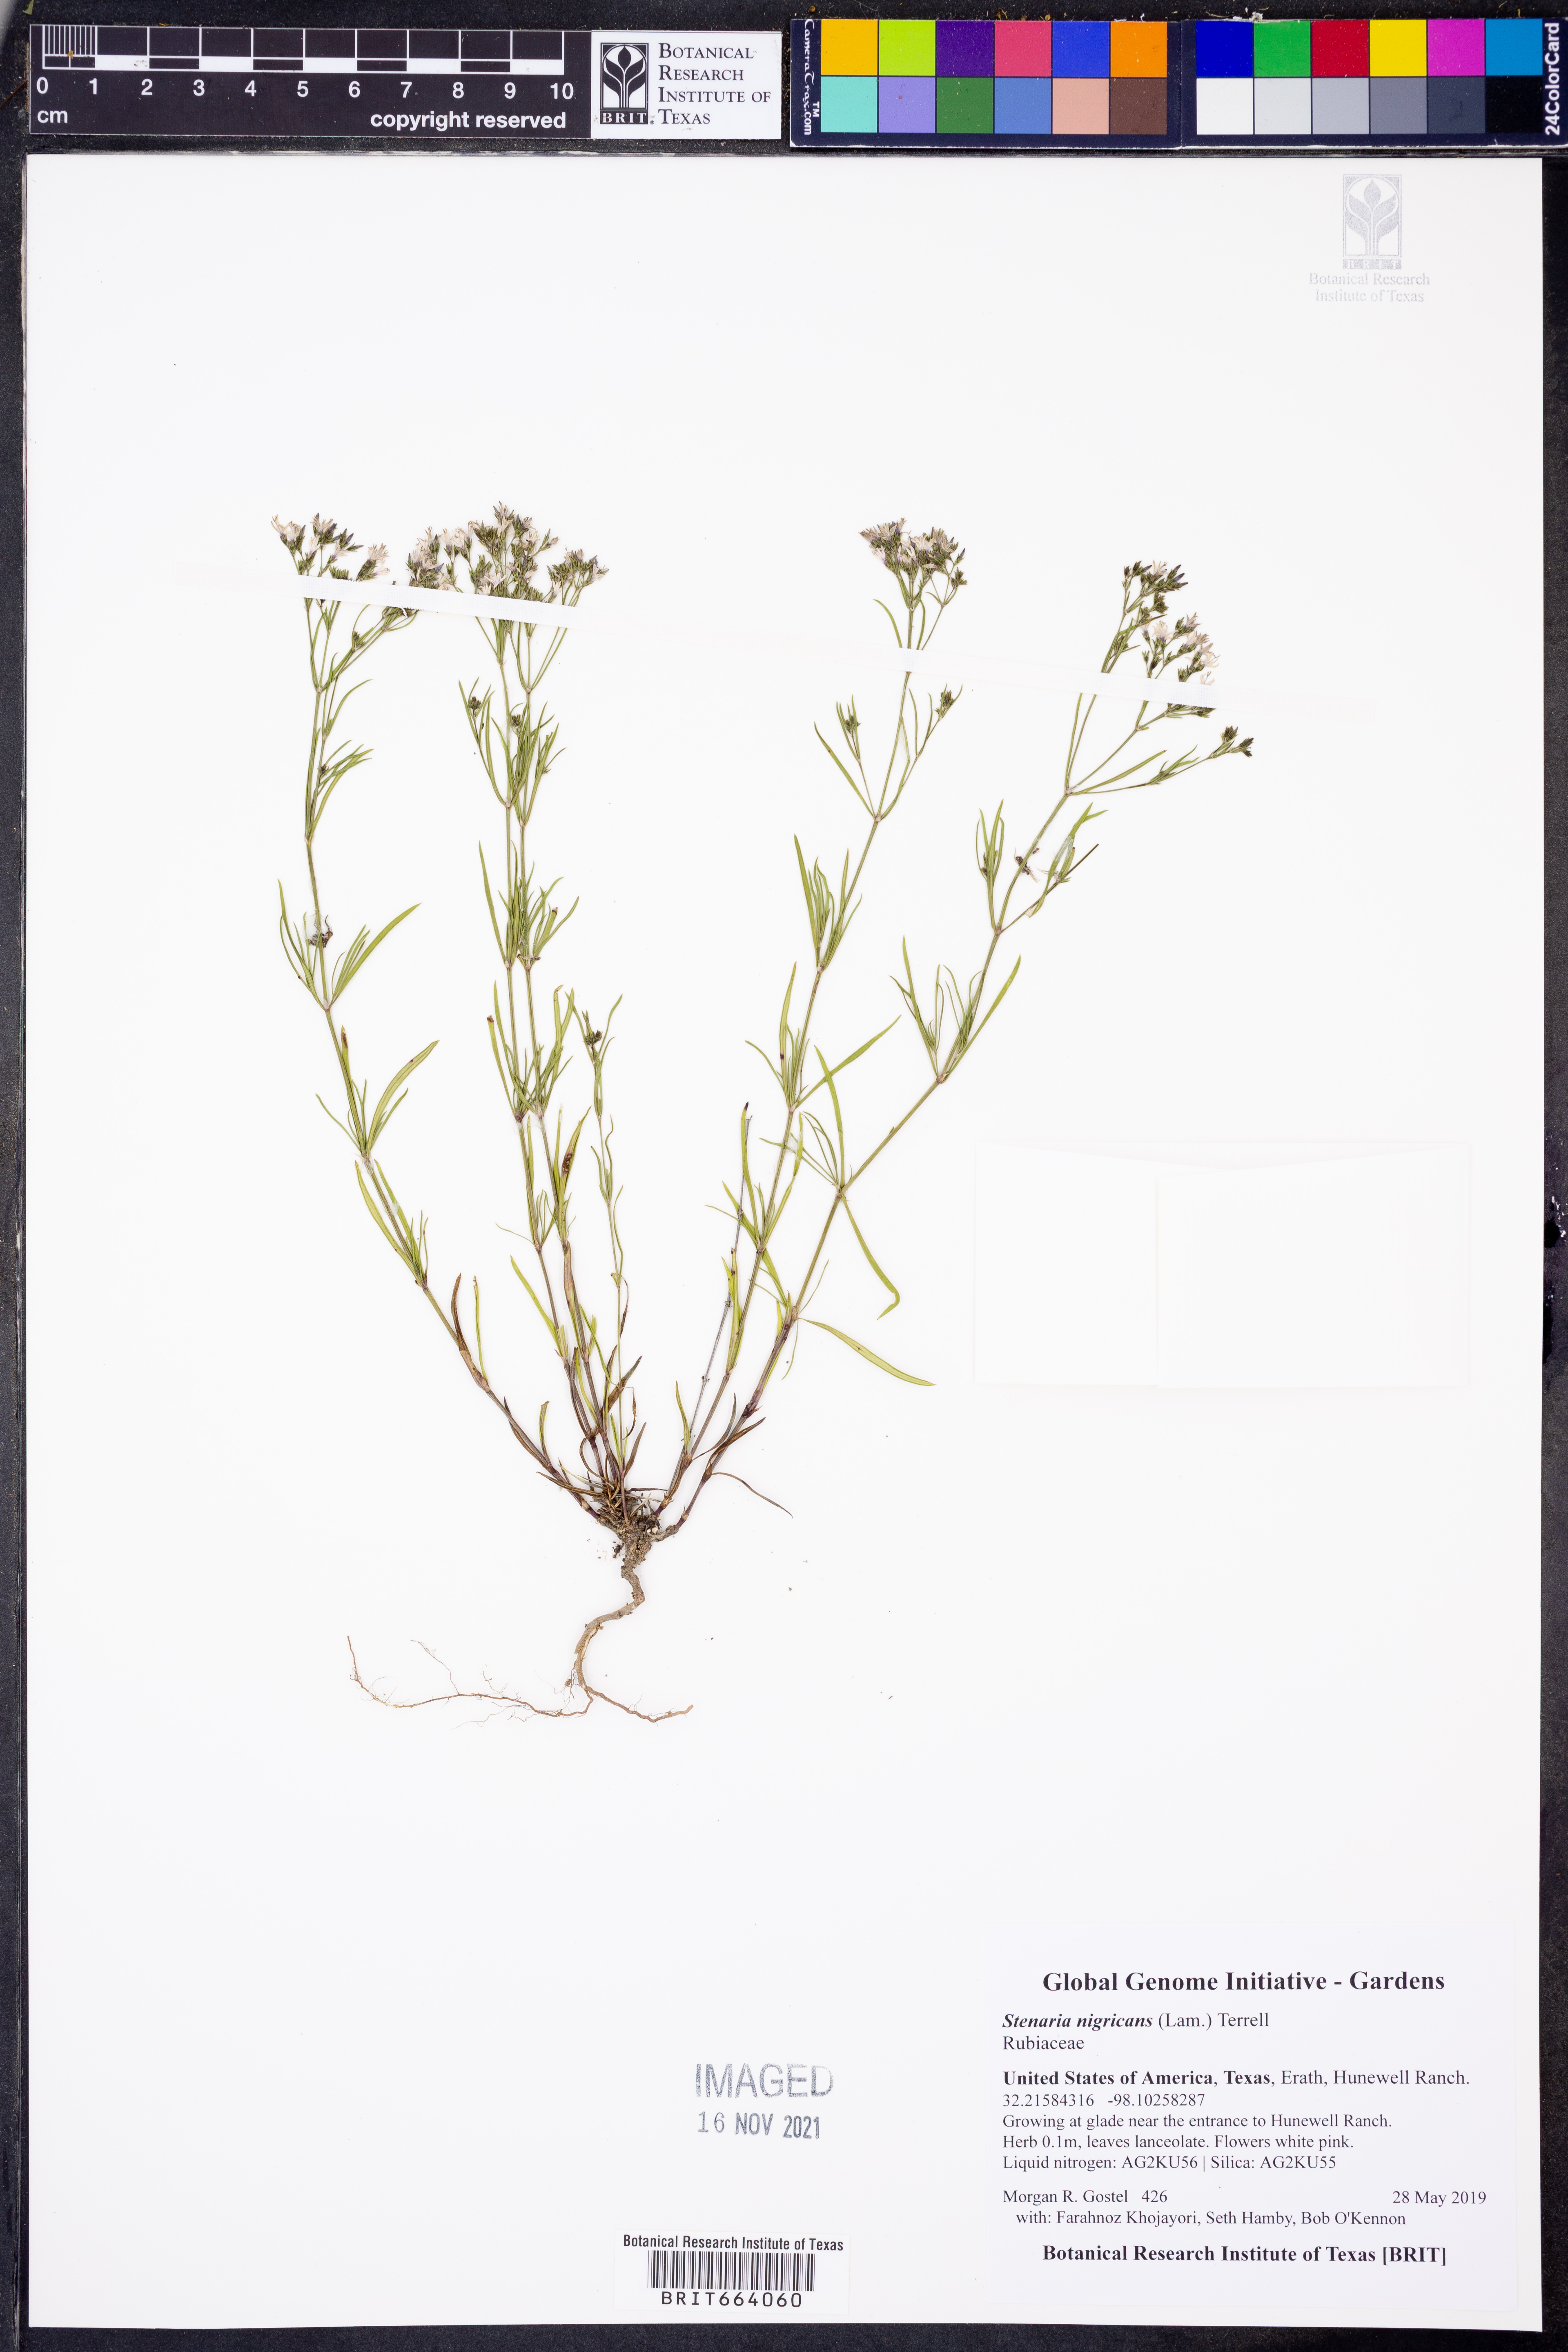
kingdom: Plantae
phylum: Tracheophyta
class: Magnoliopsida
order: Gentianales
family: Rubiaceae
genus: Stenaria
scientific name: Stenaria nigricans
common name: Diamondflowers
